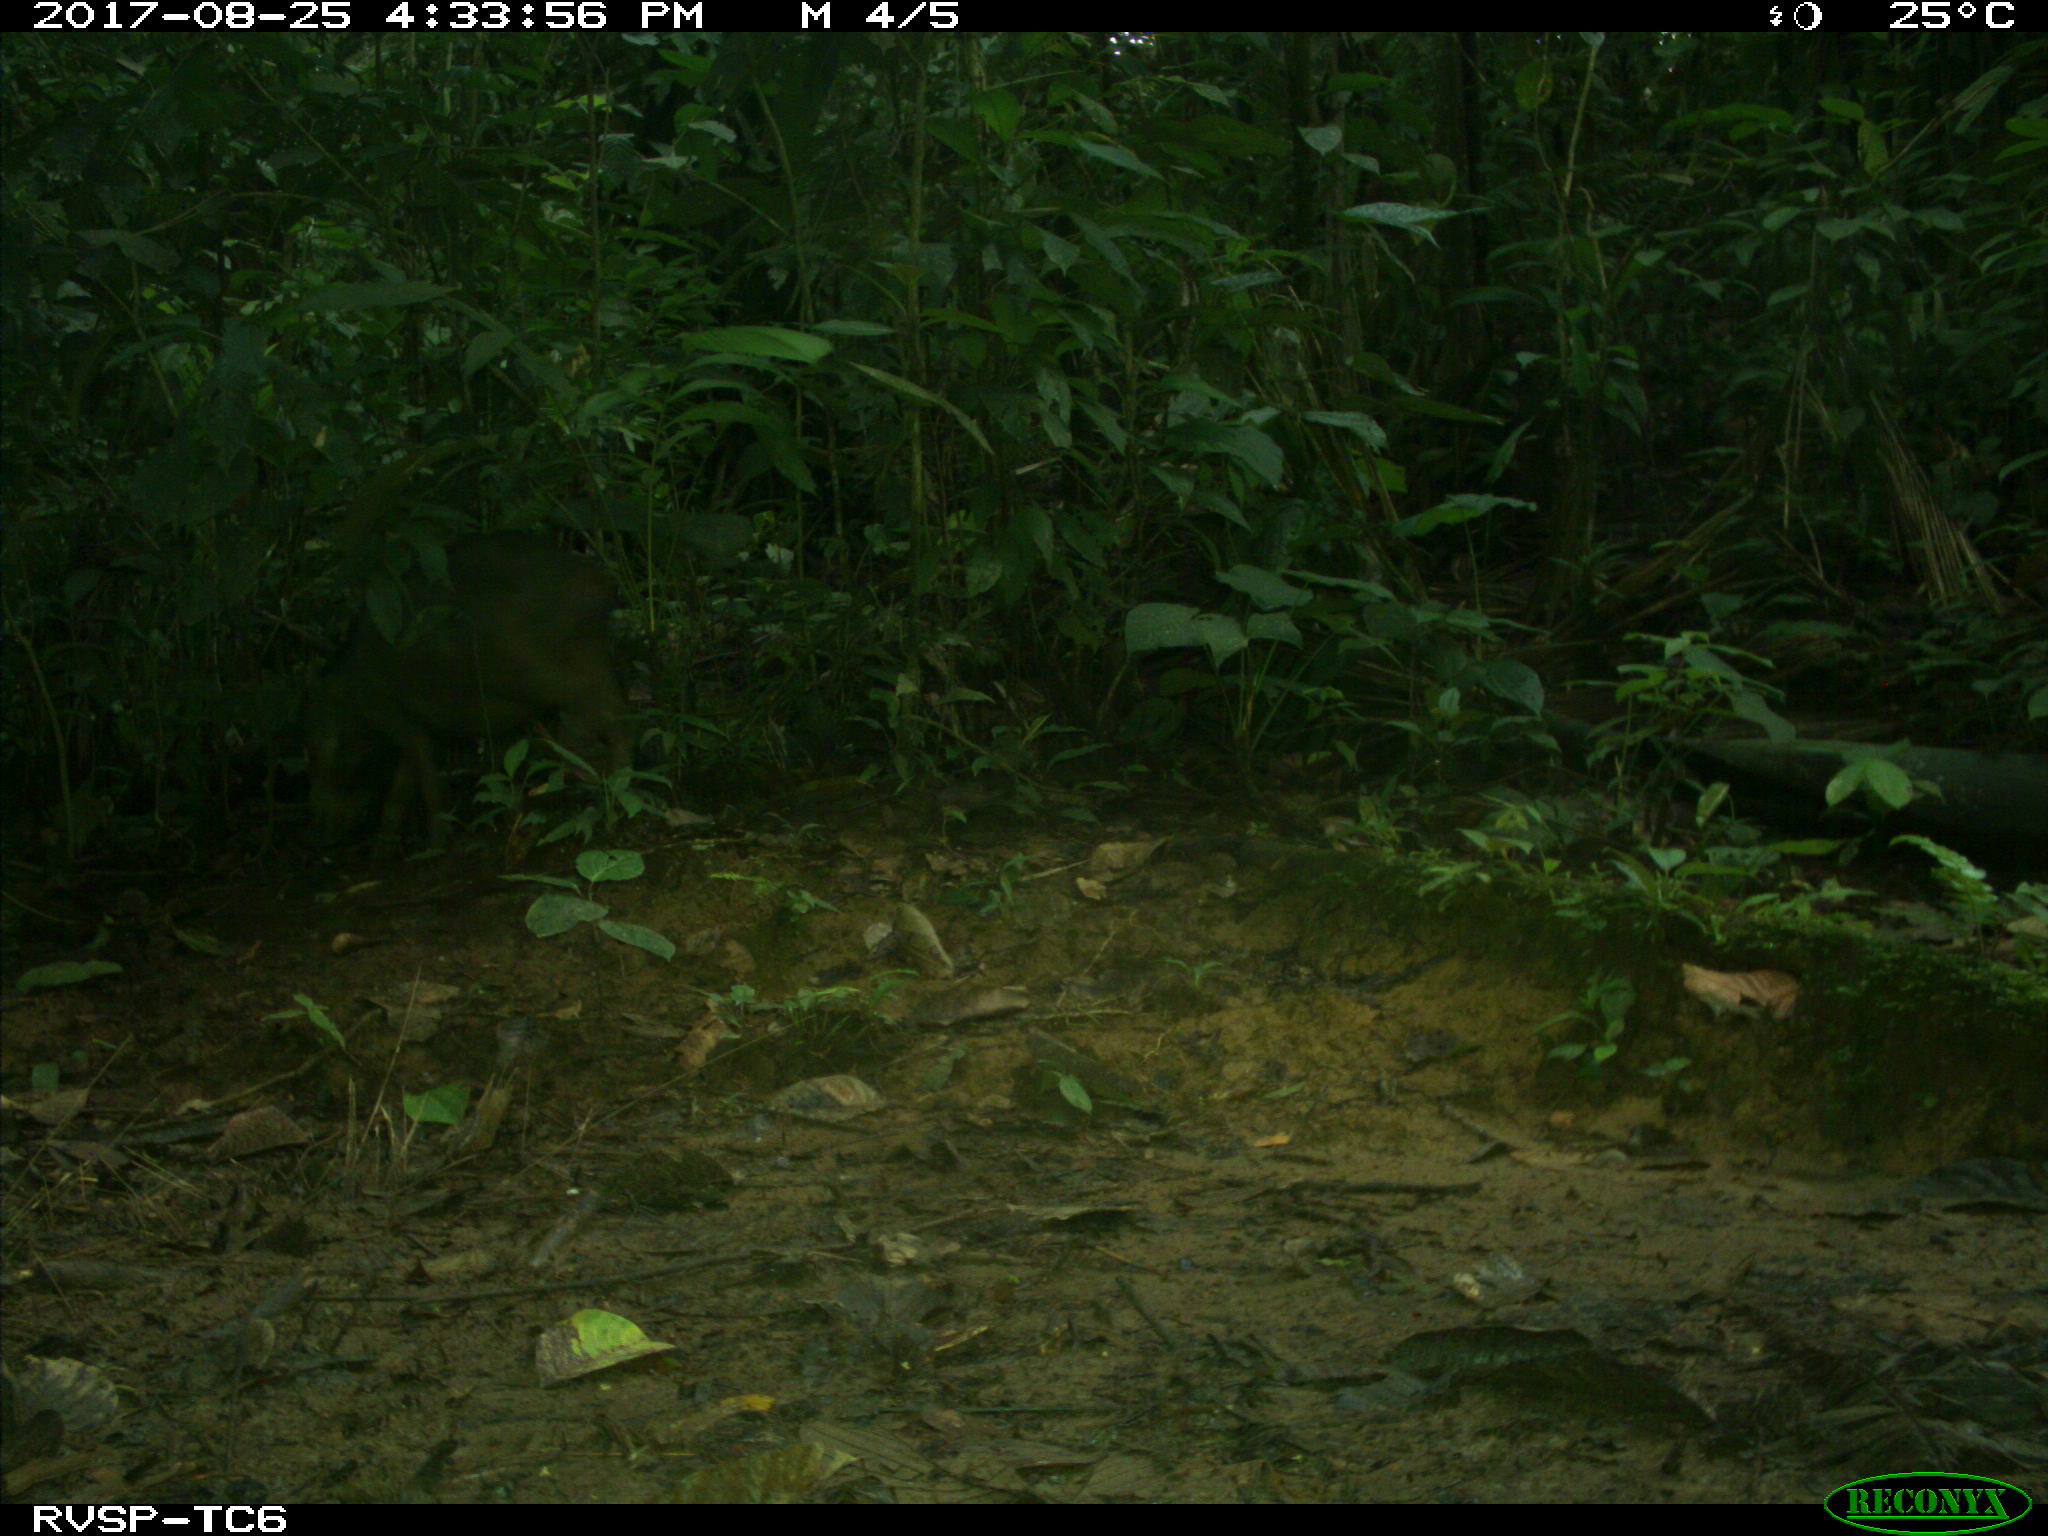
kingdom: Animalia
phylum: Chordata
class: Mammalia
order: Artiodactyla
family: Tayassuidae
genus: Tayassu
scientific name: Tayassu pecari
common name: White-lipped peccary
